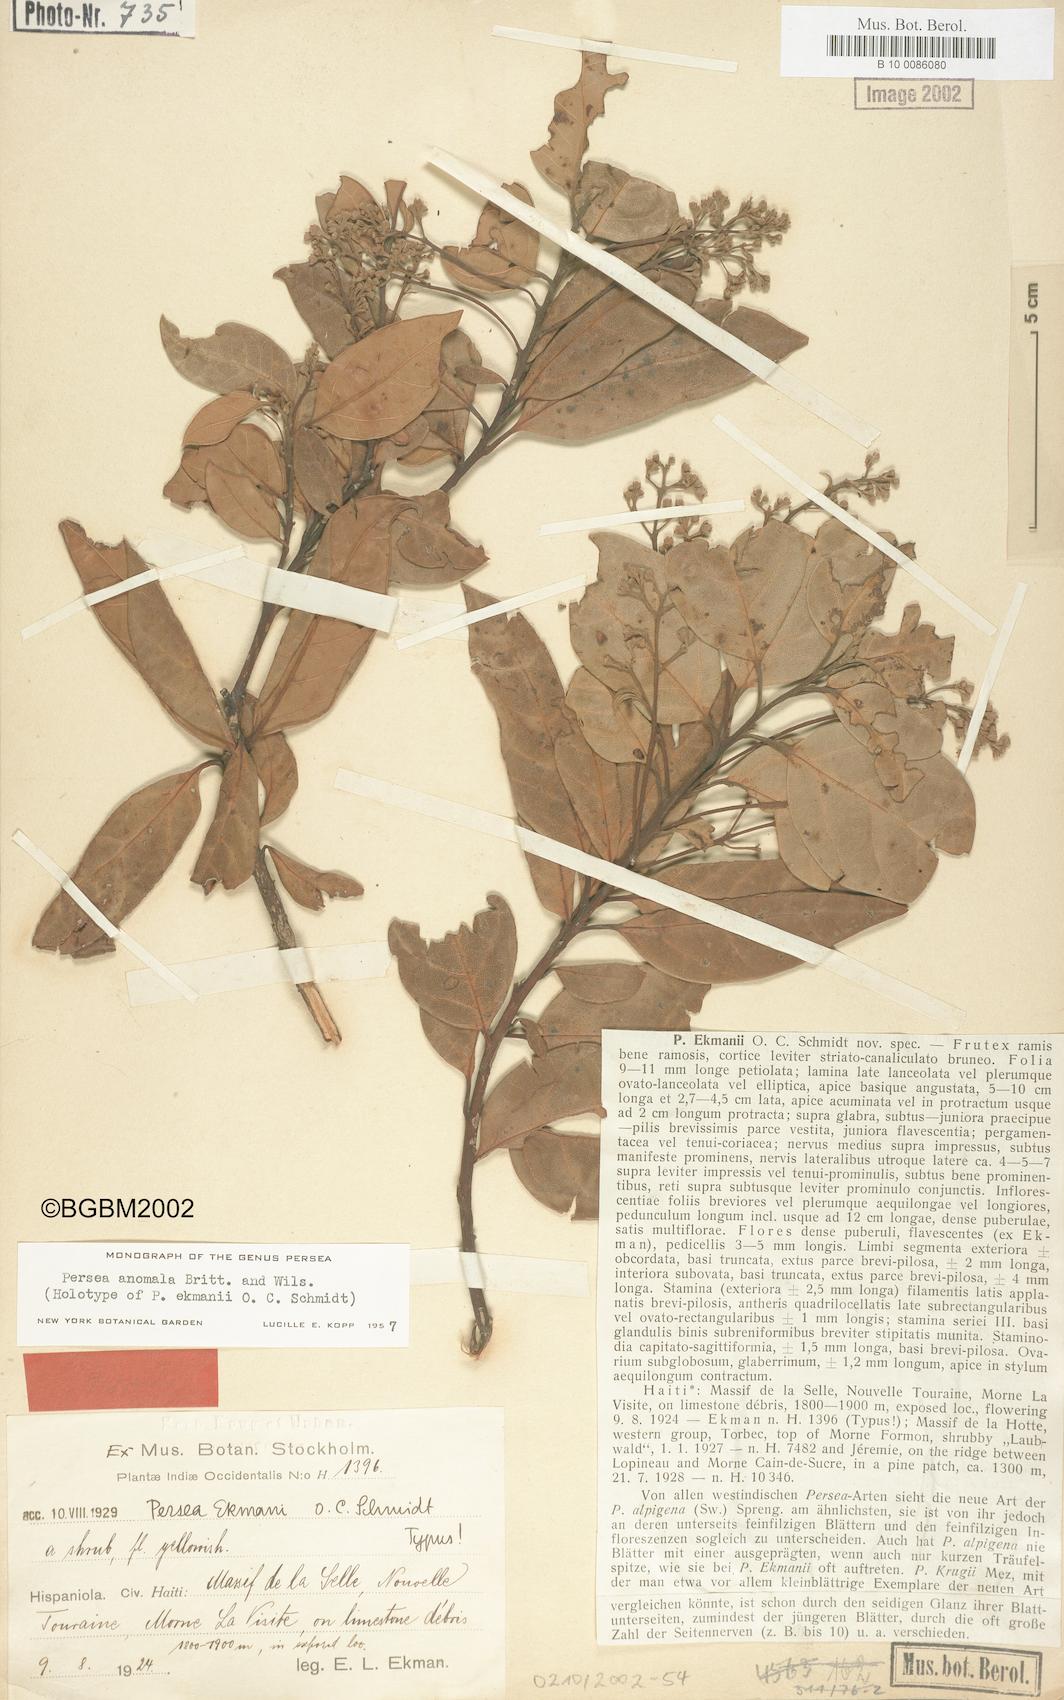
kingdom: Plantae
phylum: Tracheophyta
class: Magnoliopsida
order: Laurales
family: Lauraceae
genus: Persea
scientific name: Persea anomala
